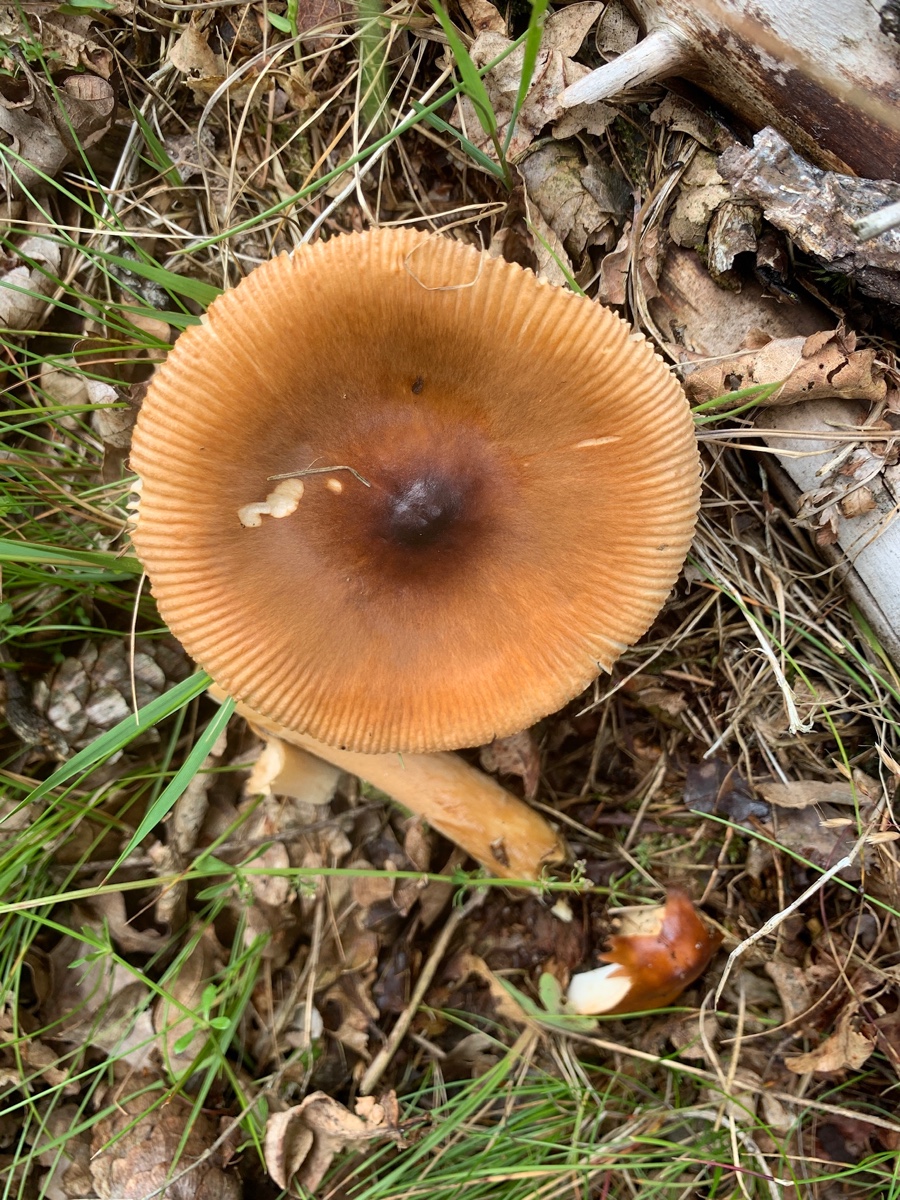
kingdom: Fungi
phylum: Basidiomycota
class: Agaricomycetes
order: Agaricales
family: Amanitaceae
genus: Amanita
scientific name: Amanita fulva
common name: brun kam-fluesvamp
